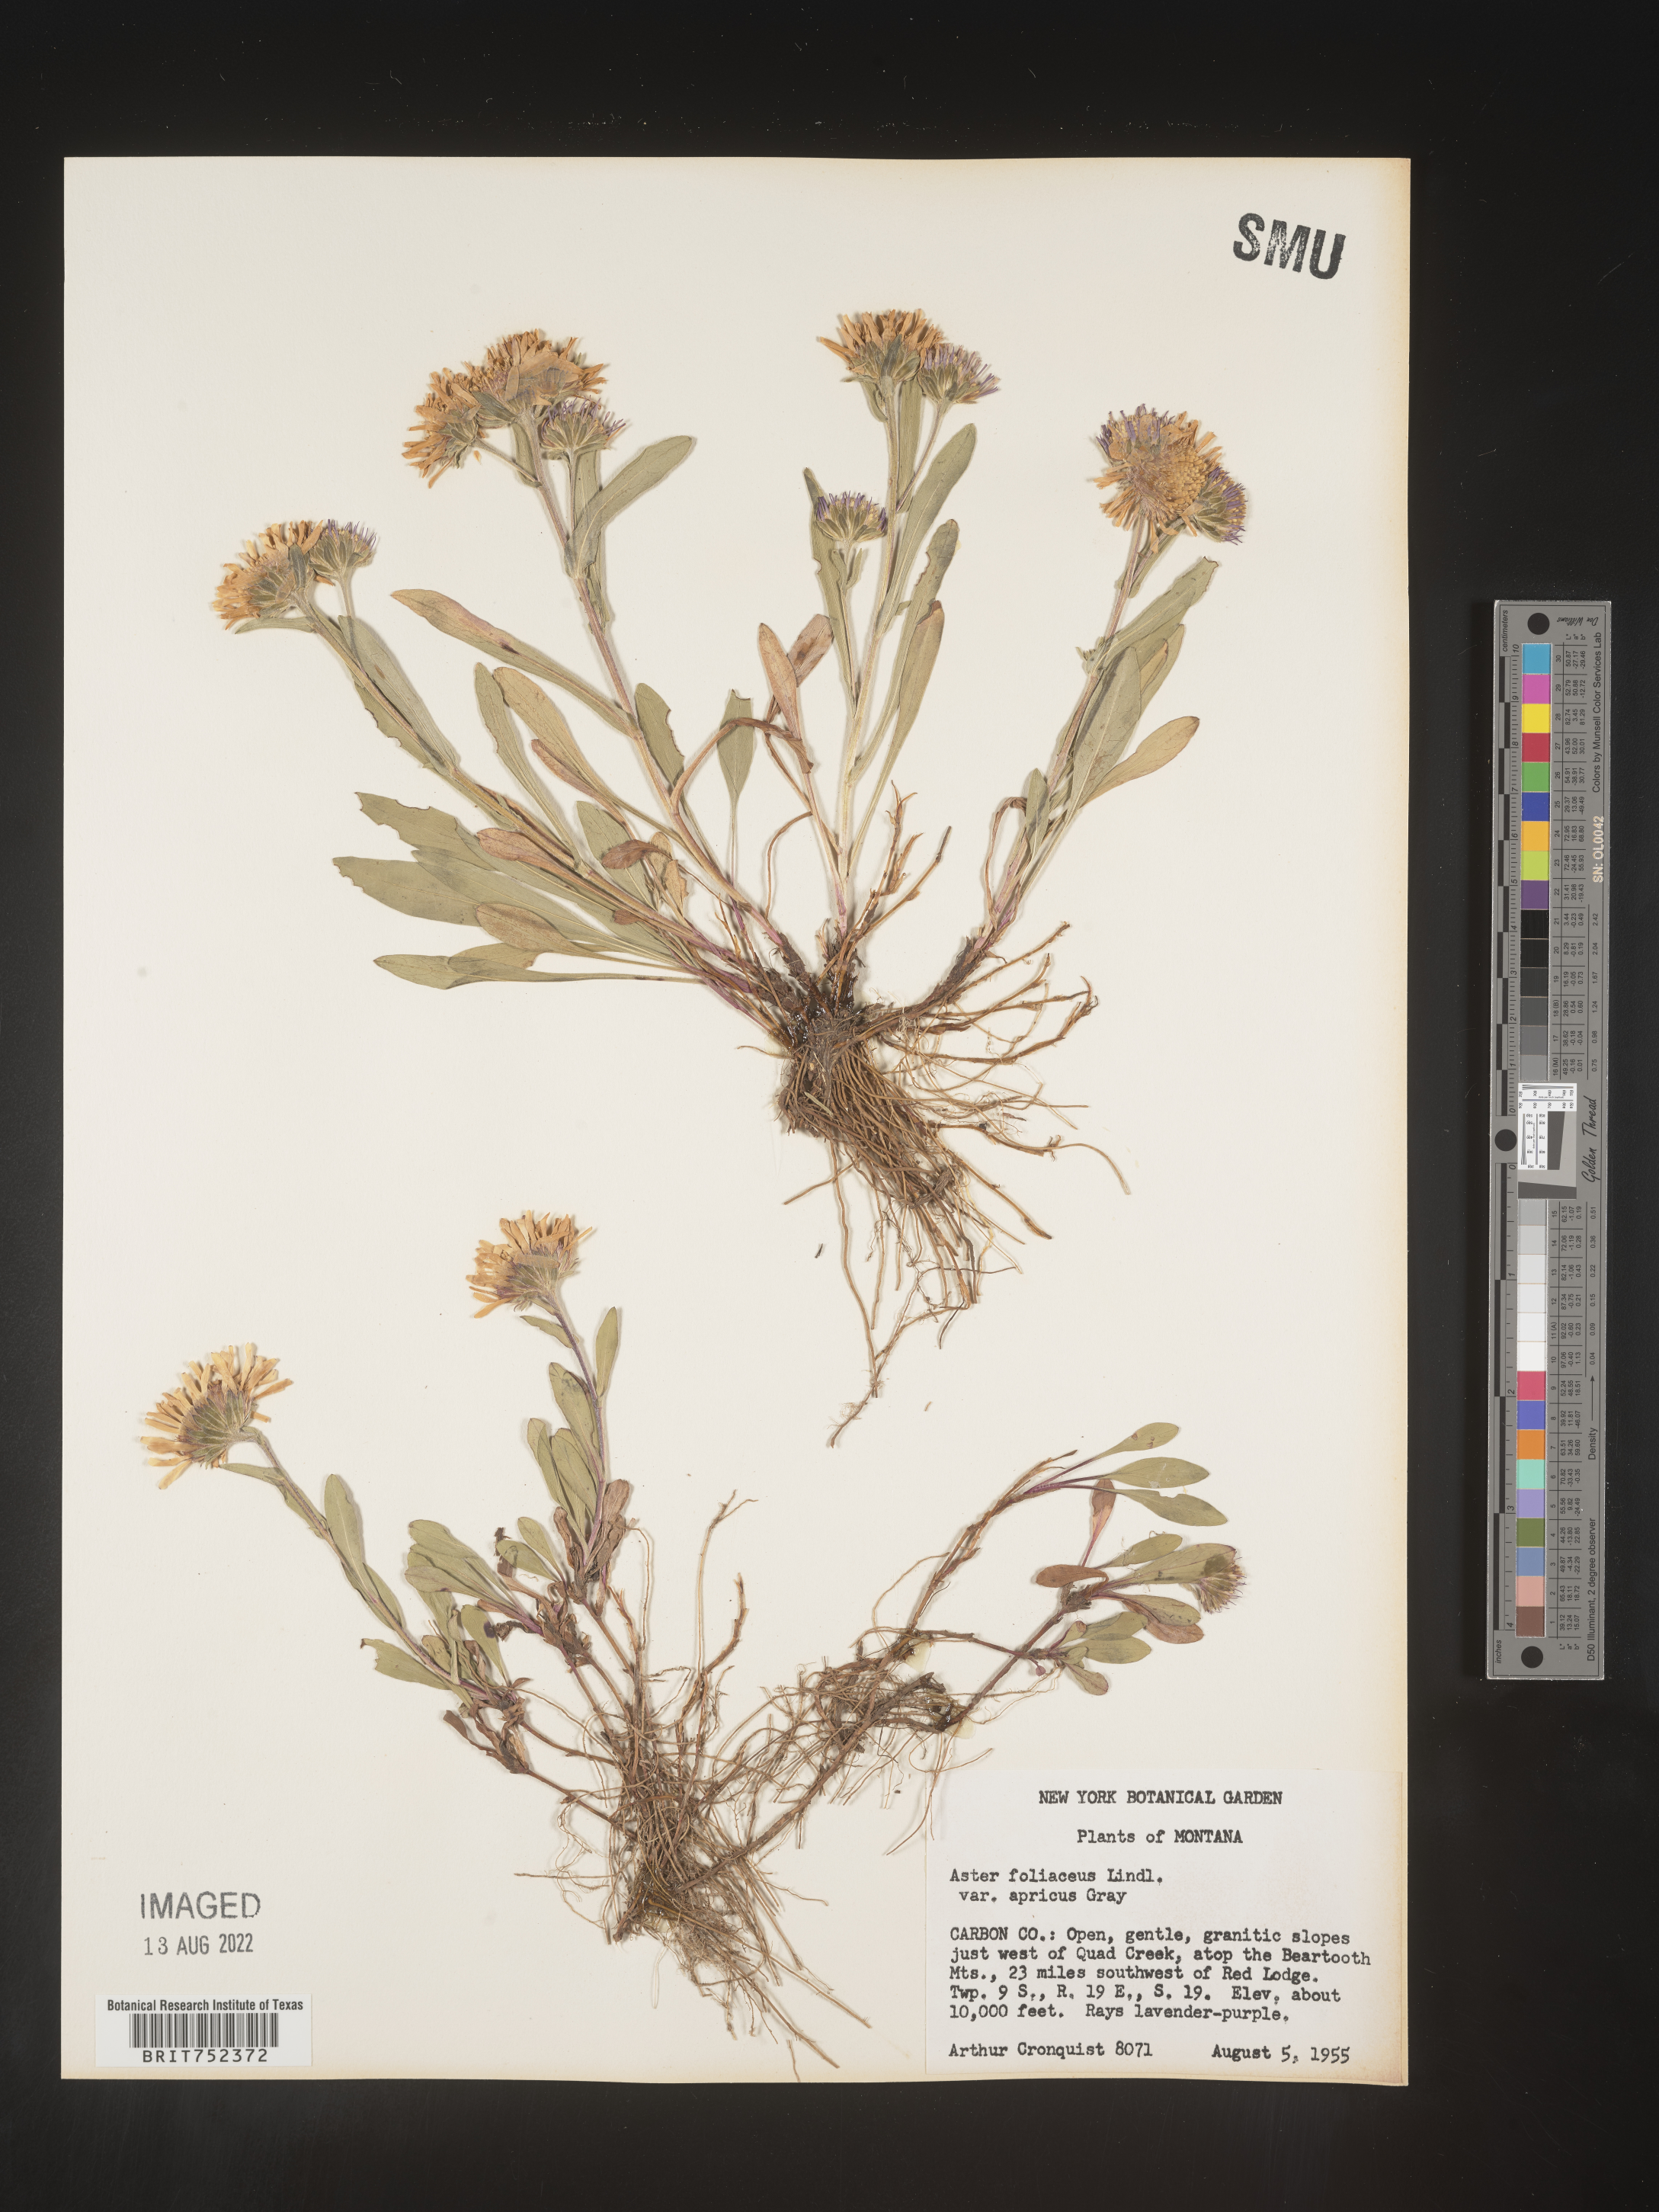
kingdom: Plantae
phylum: Tracheophyta
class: Magnoliopsida
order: Asterales
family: Asteraceae
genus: Symphyotrichum
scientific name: Symphyotrichum foliaceum
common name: Leafy aster
